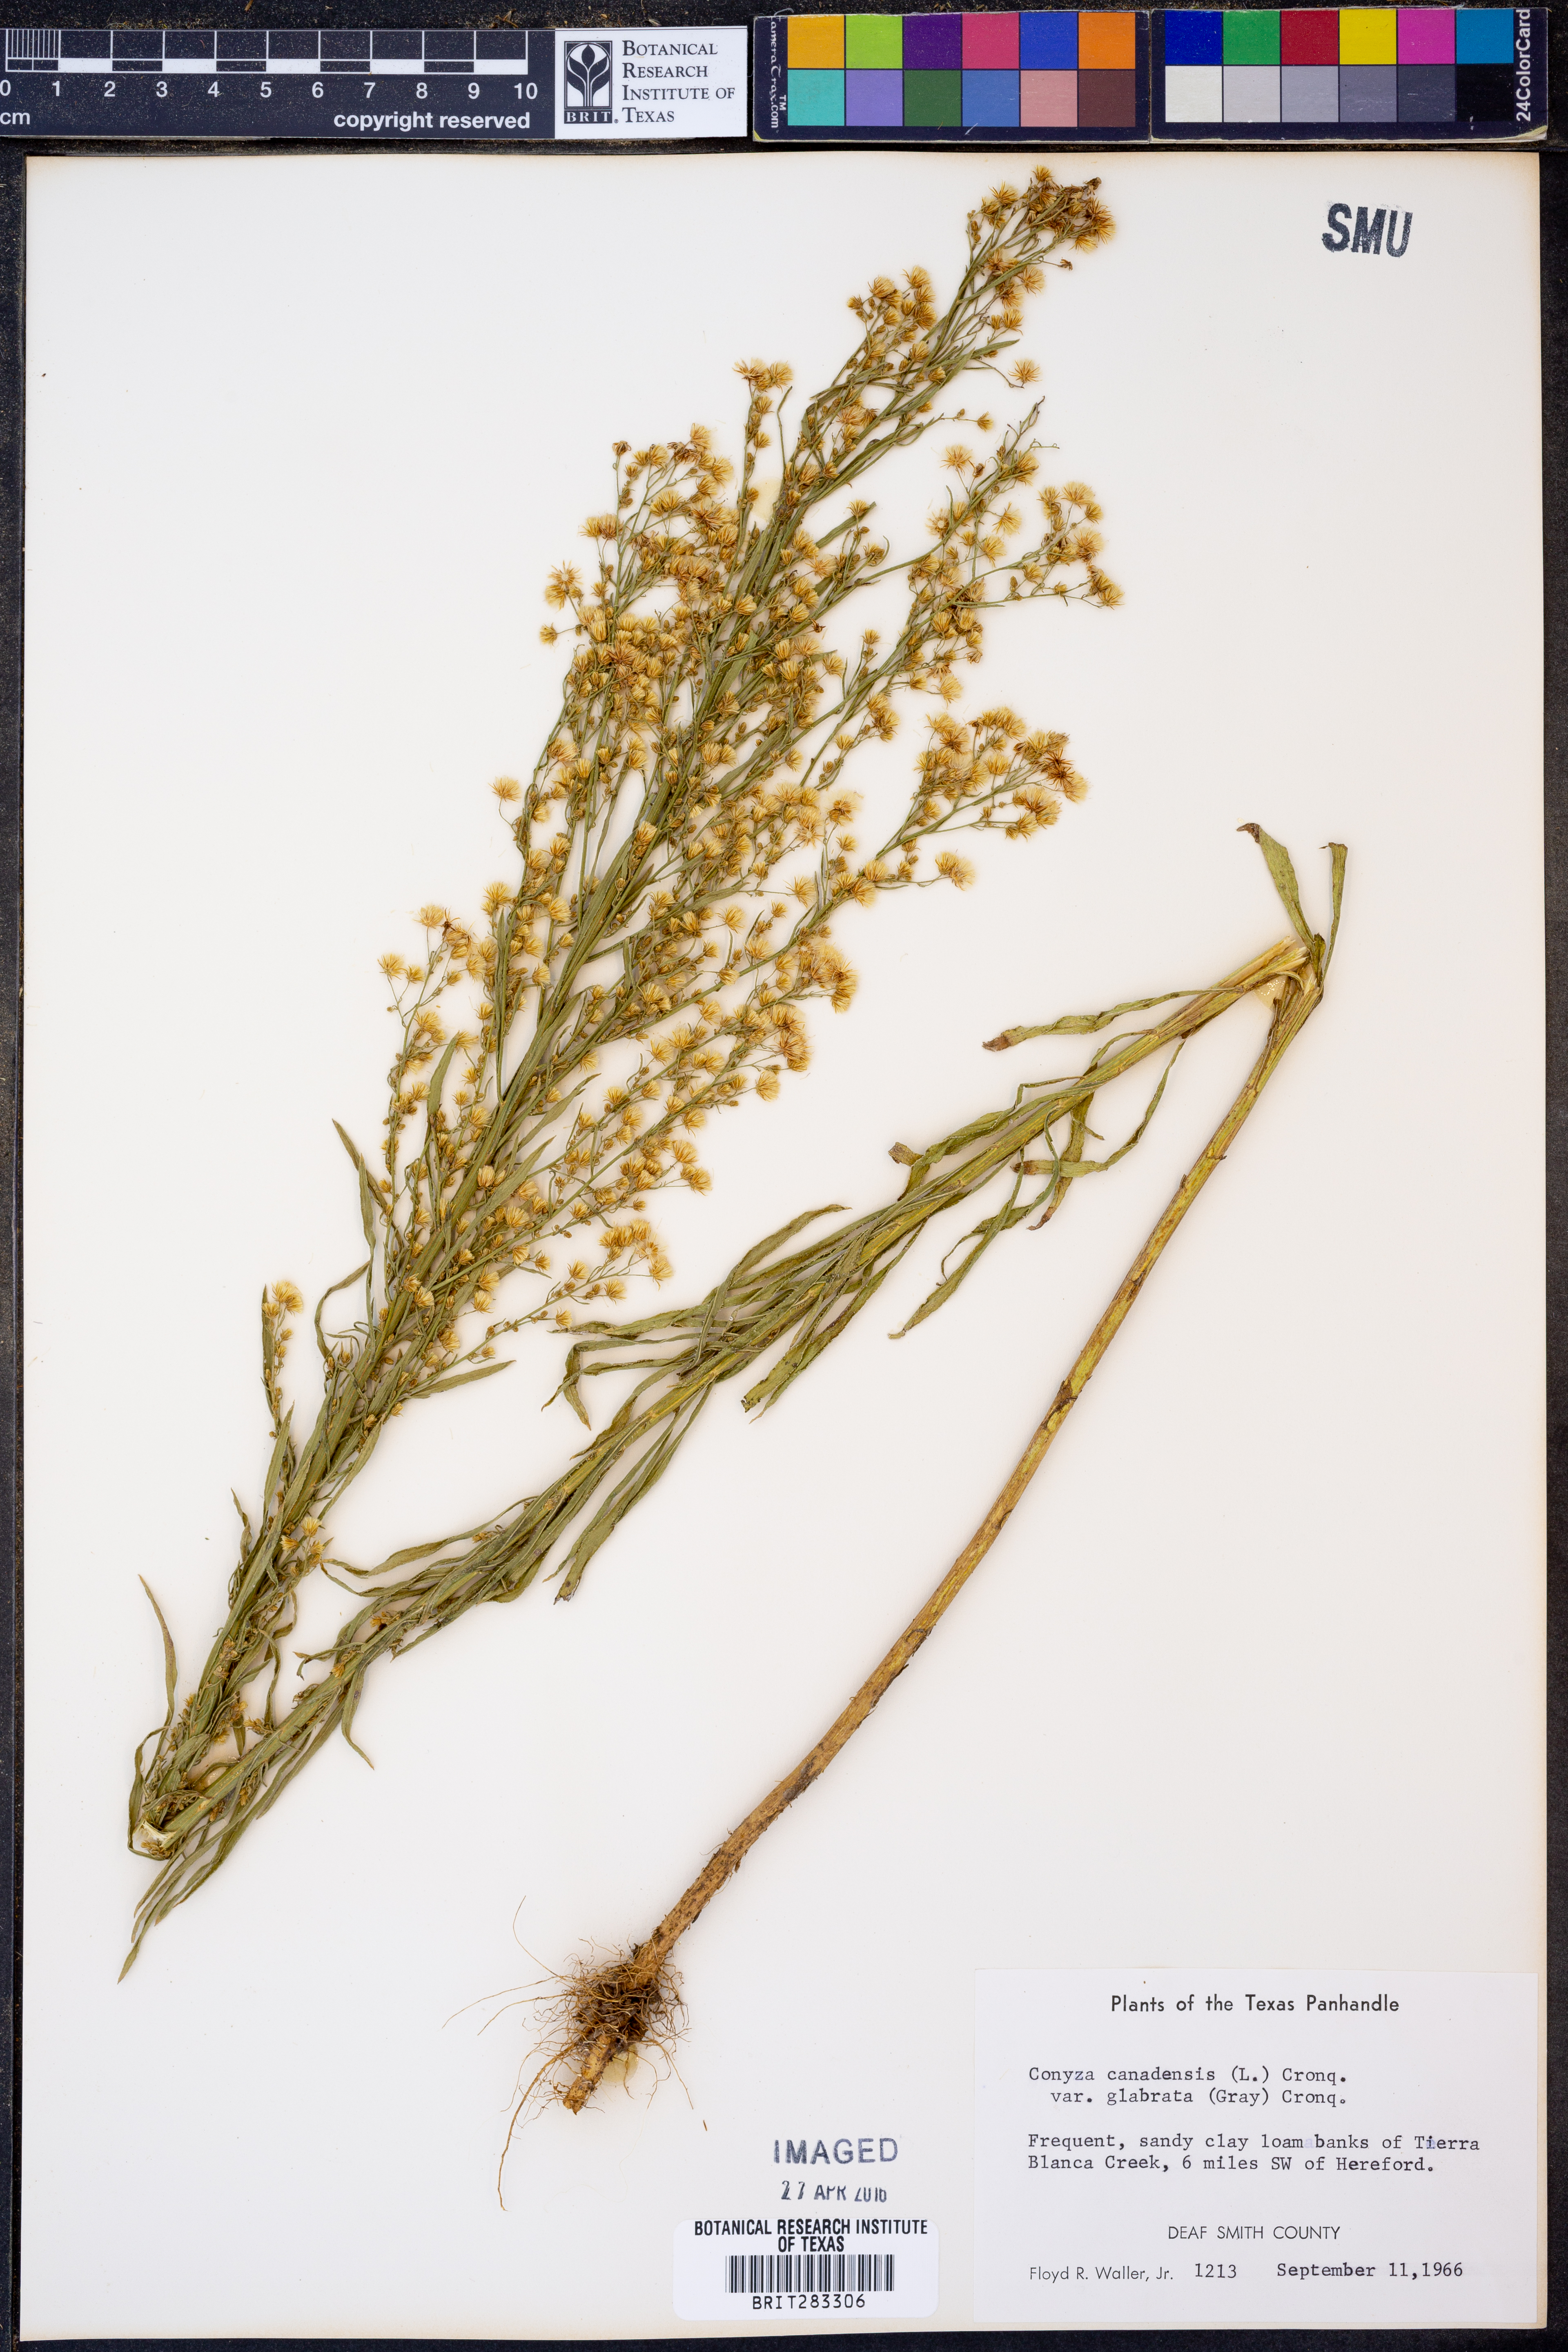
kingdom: Plantae
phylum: Tracheophyta
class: Magnoliopsida
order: Asterales
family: Asteraceae
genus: Erigeron
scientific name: Erigeron canadensis
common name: Canadian fleabane
